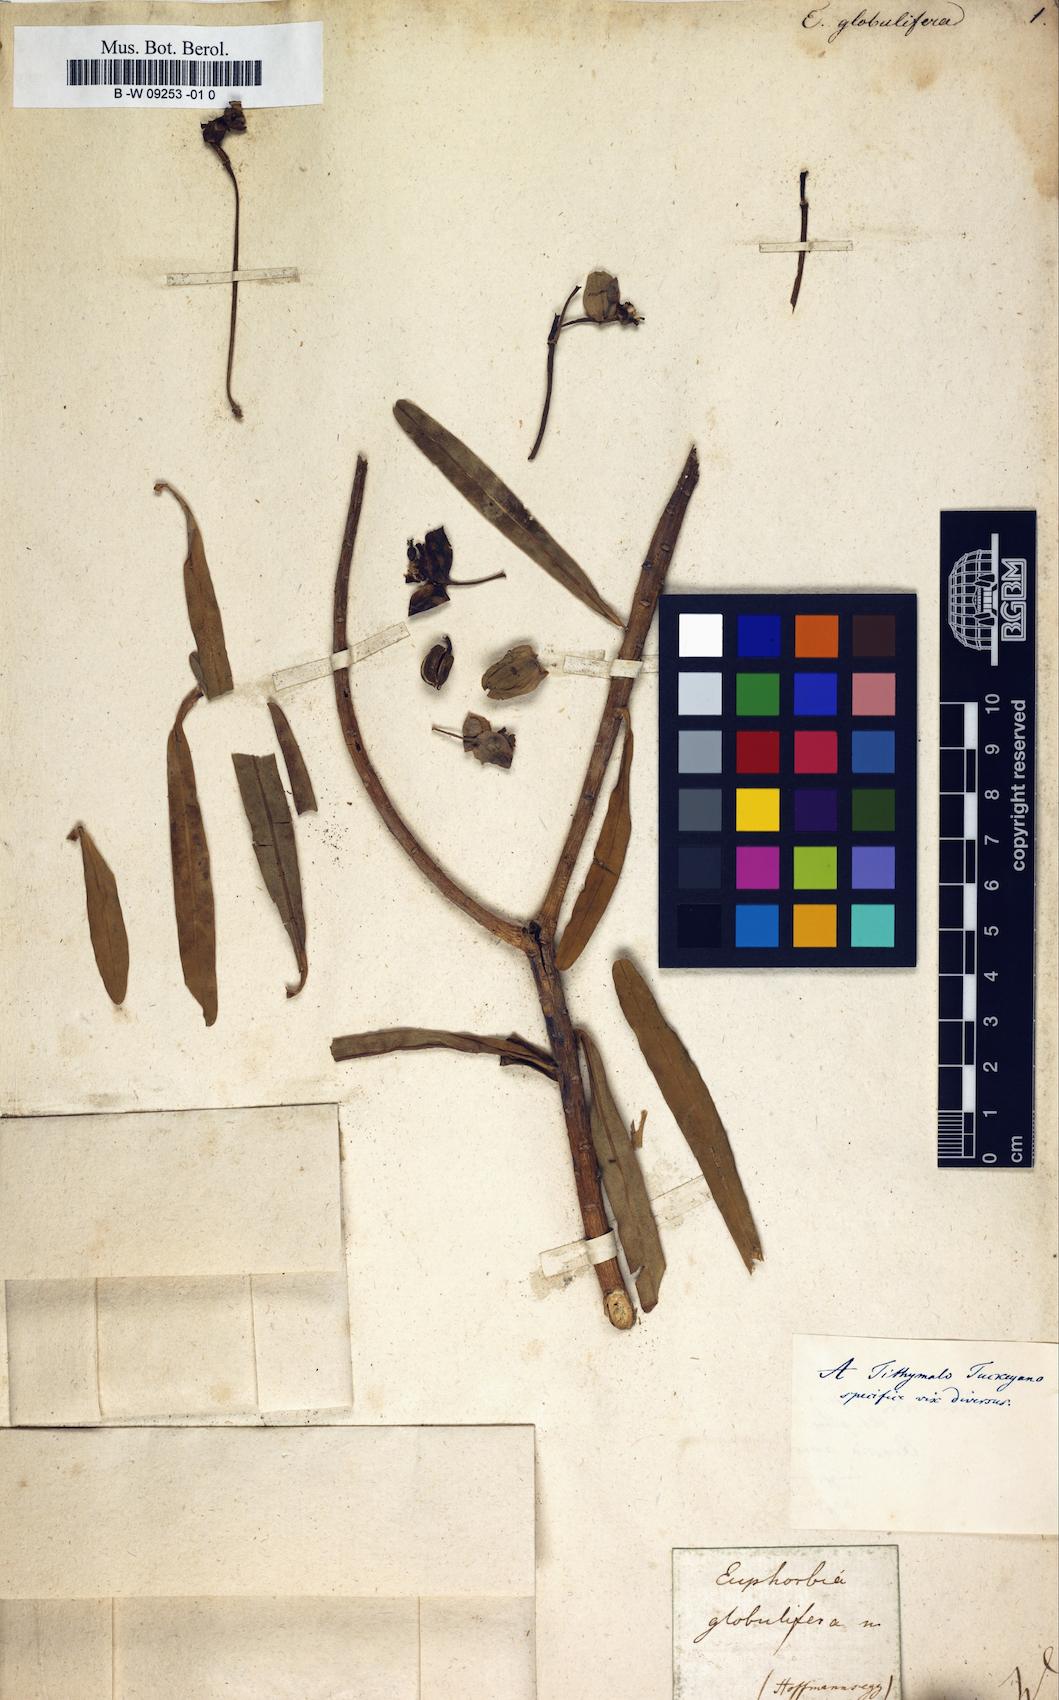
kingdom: Plantae
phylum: Tracheophyta
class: Magnoliopsida
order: Malpighiales
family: Euphorbiaceae
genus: Euphorbia
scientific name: Euphorbia hirta
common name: Pillpod sandmat
